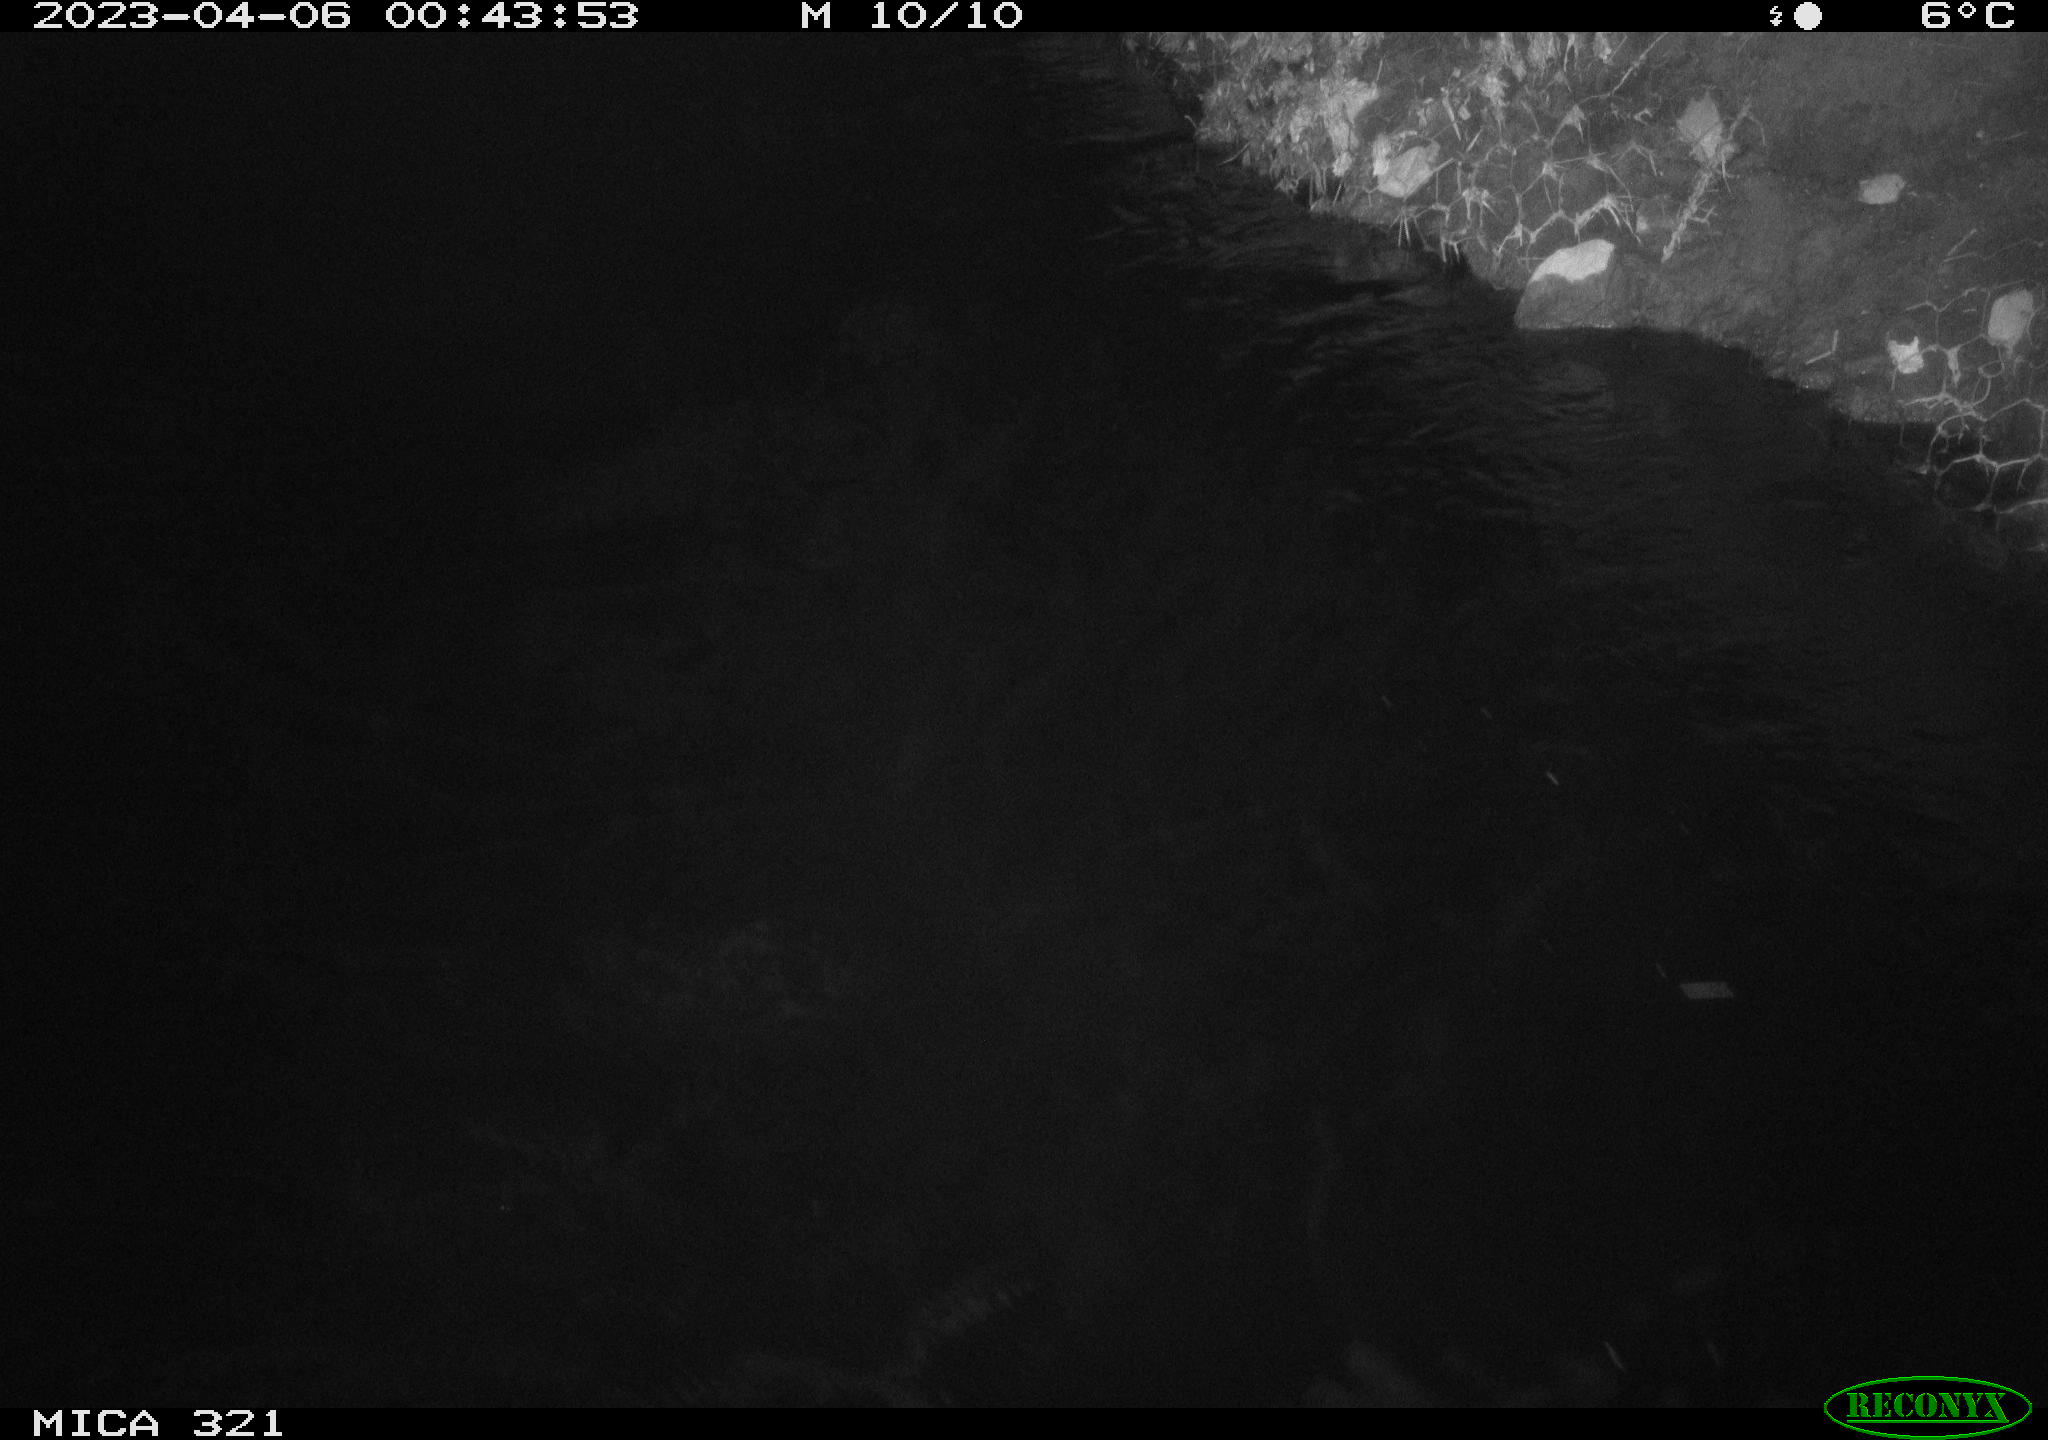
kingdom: Animalia
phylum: Chordata
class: Aves
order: Anseriformes
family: Anatidae
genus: Anas
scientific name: Anas
